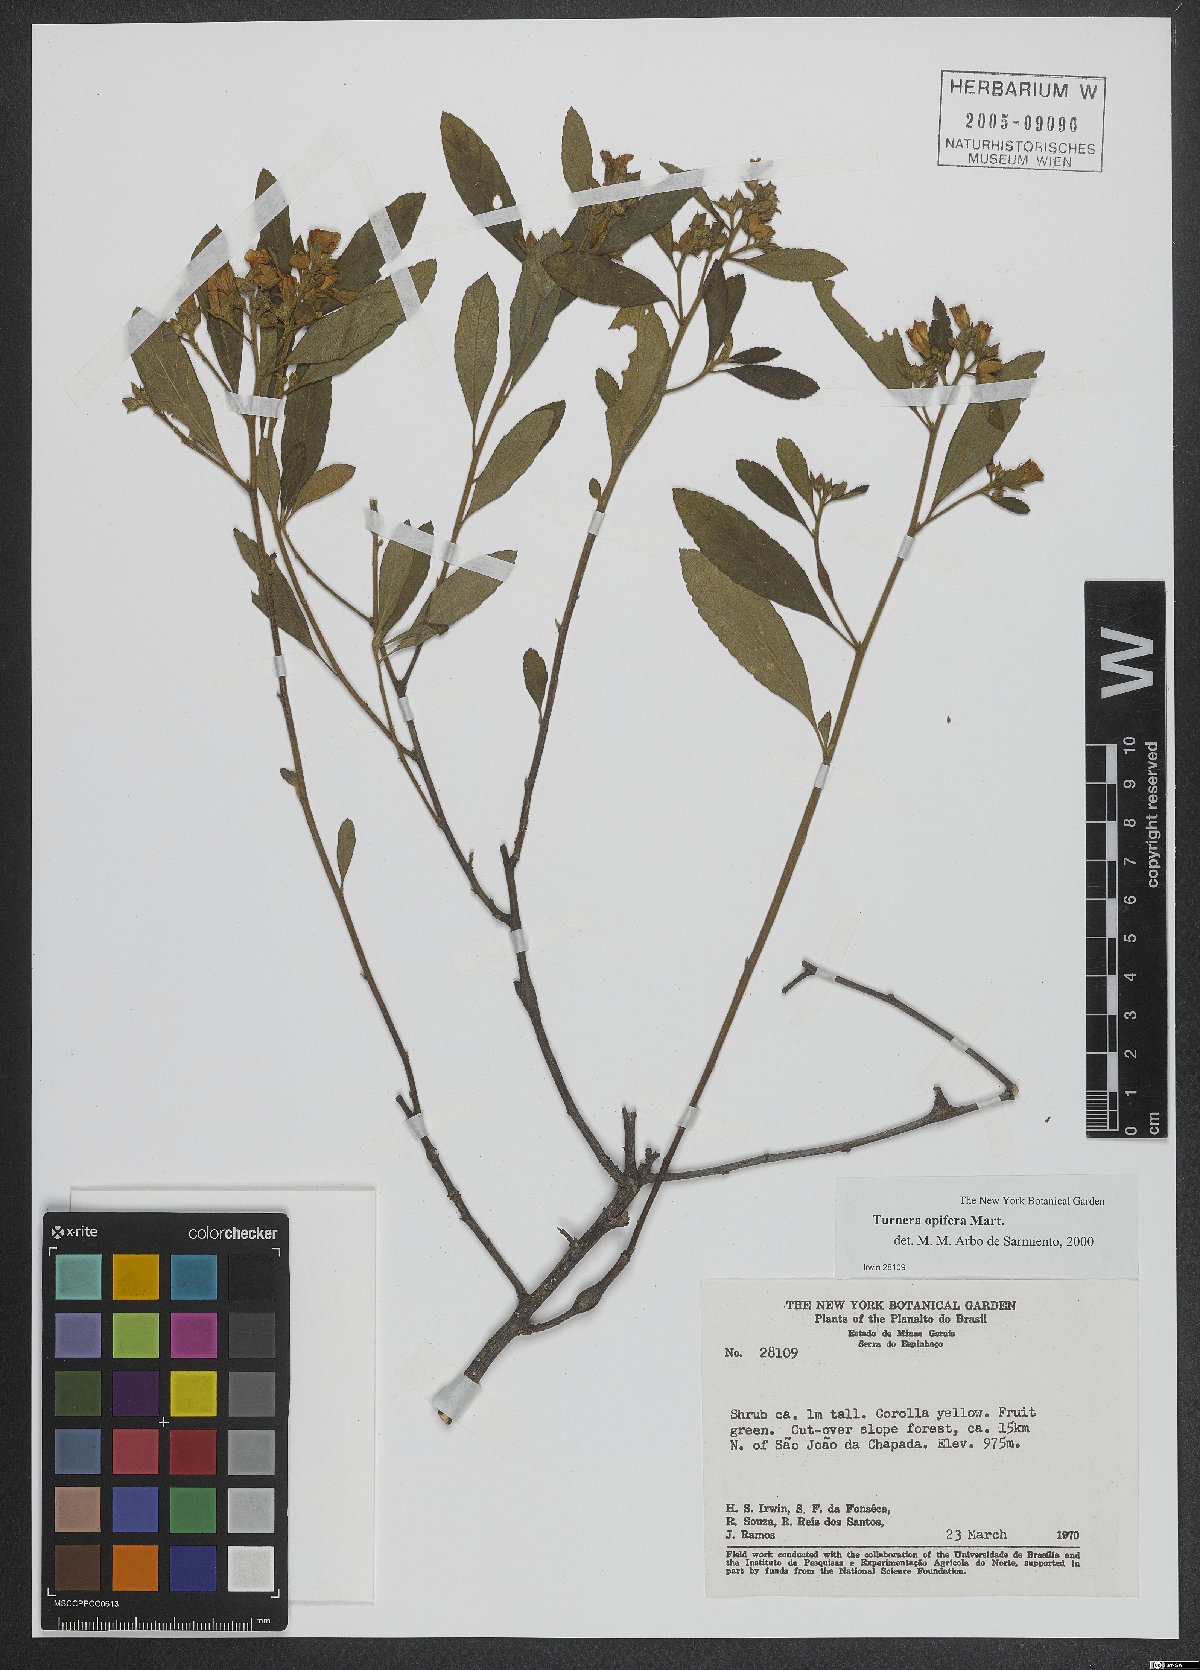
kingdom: Plantae
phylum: Tracheophyta
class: Magnoliopsida
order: Malpighiales
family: Turneraceae
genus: Turnera
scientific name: Turnera opifera
